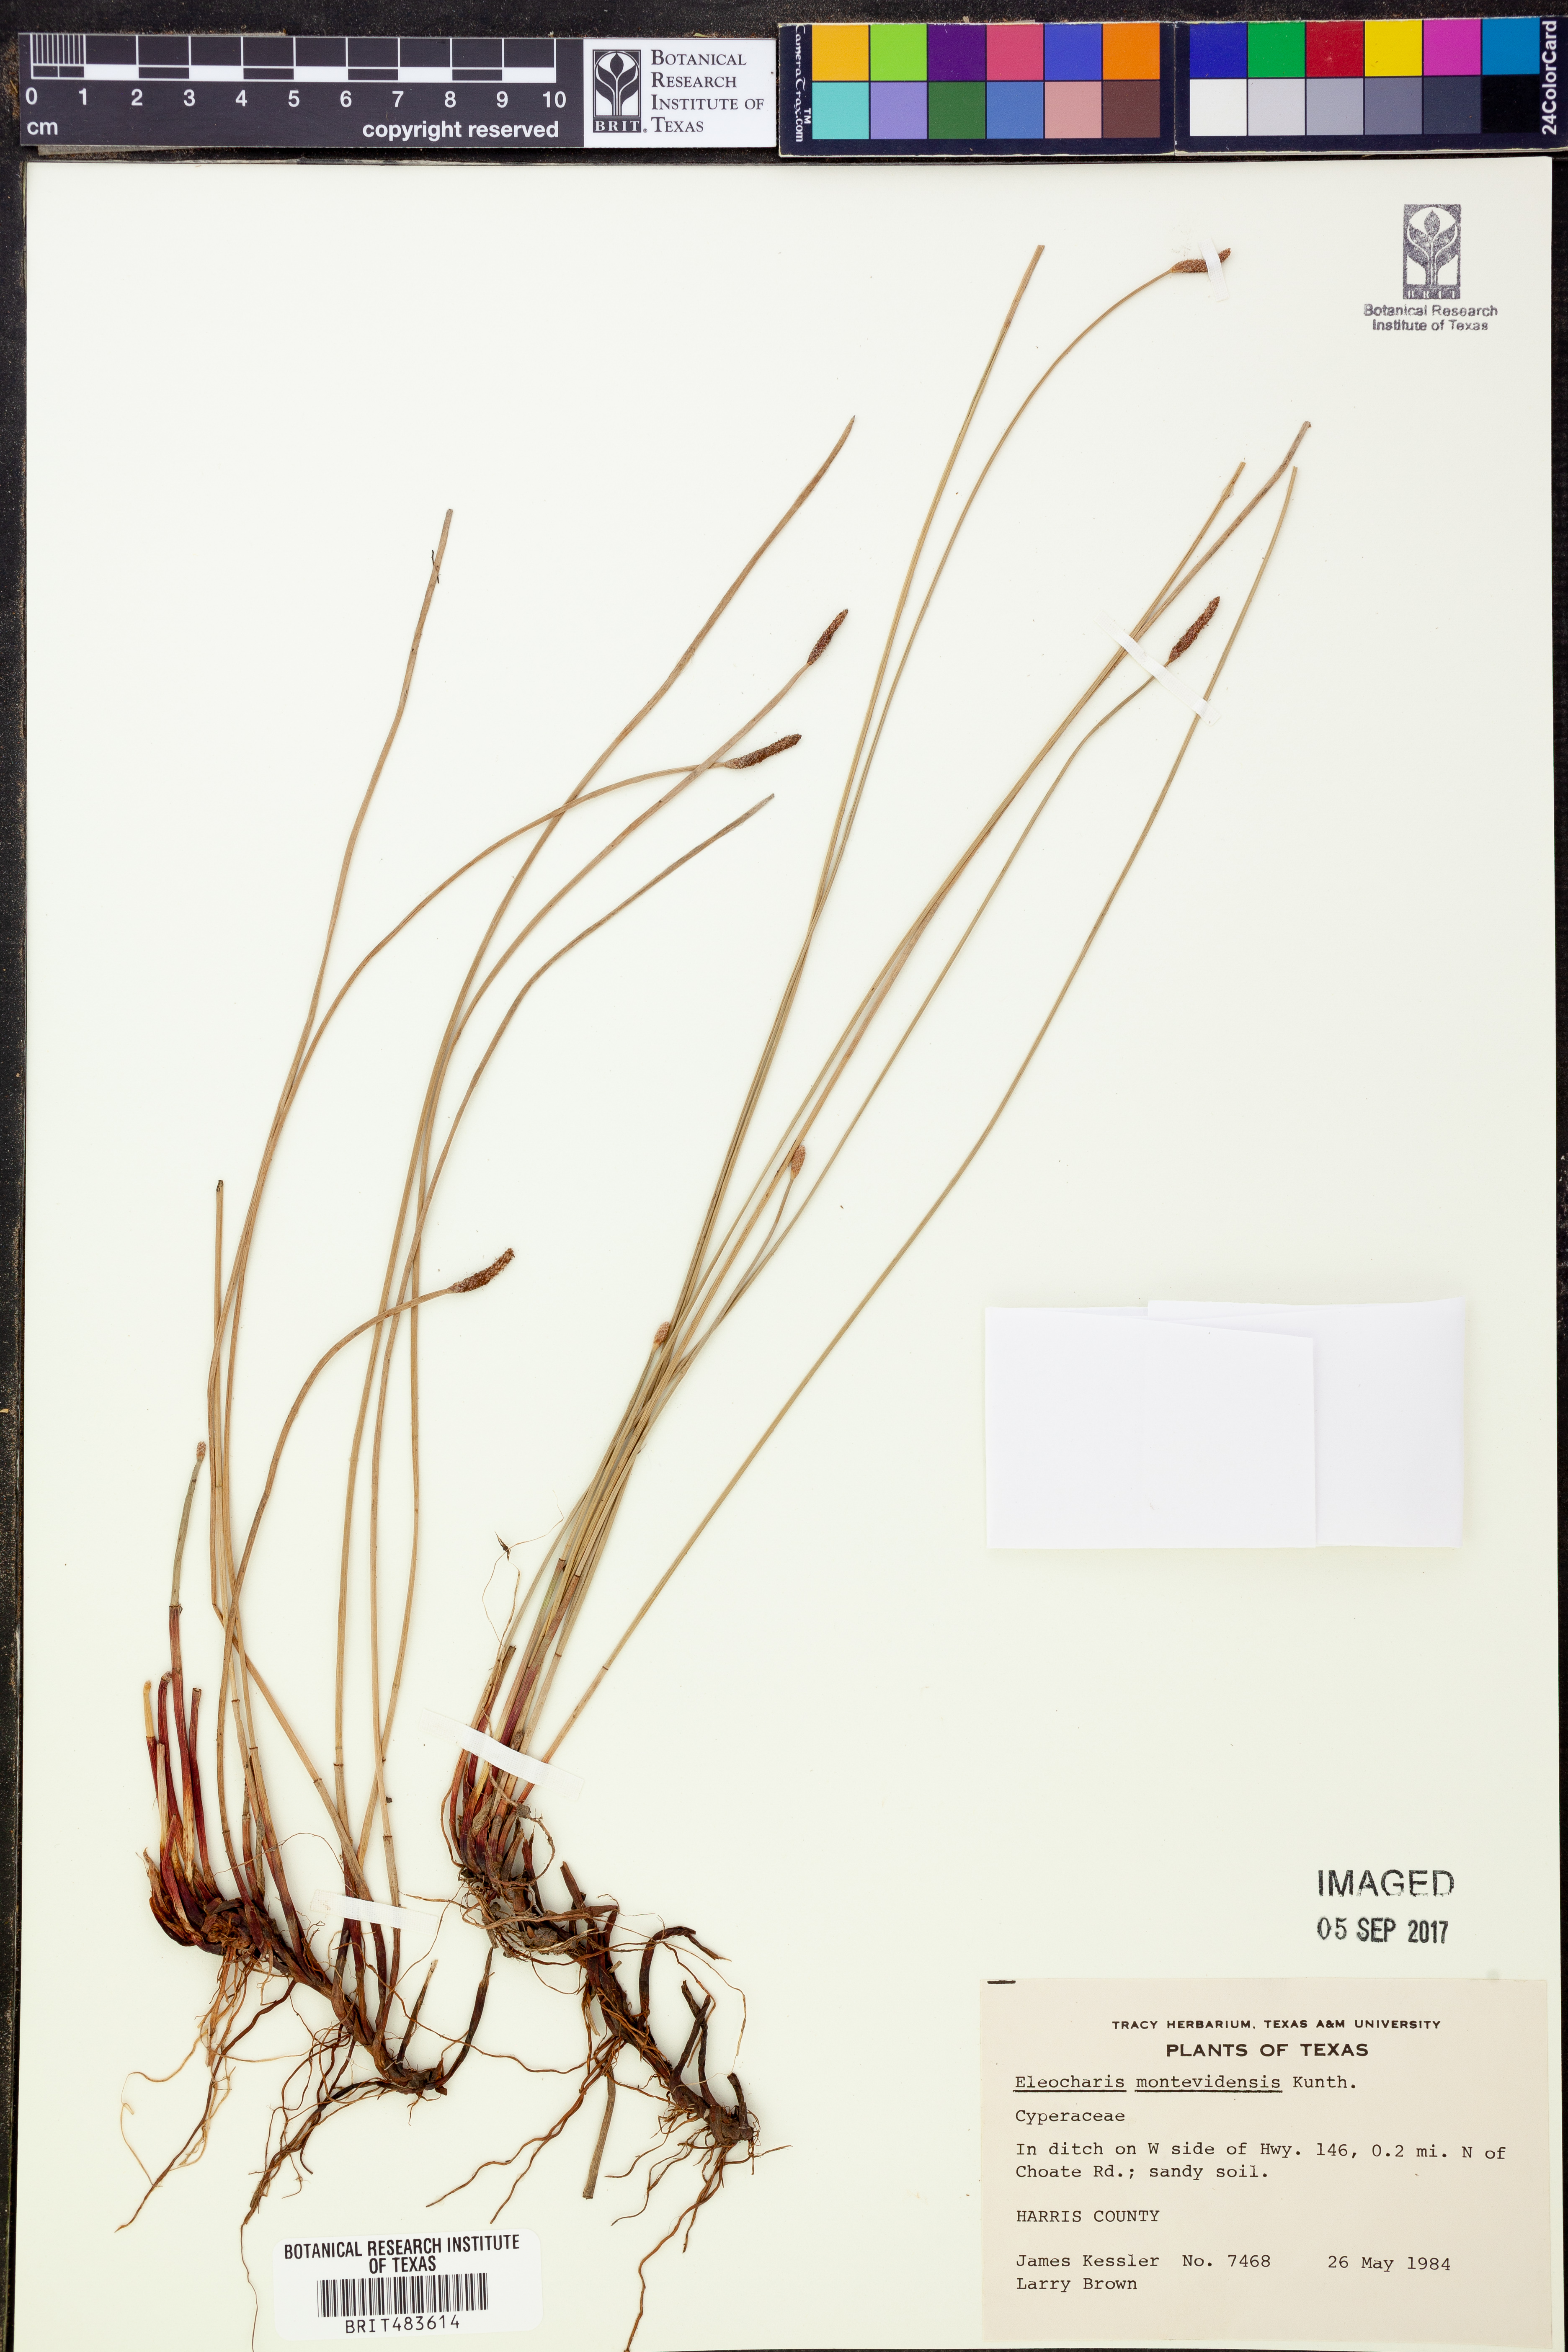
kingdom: Plantae
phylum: Tracheophyta
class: Liliopsida
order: Poales
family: Cyperaceae
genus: Eleocharis
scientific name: Eleocharis montevidensis
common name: Sand spike-rush
